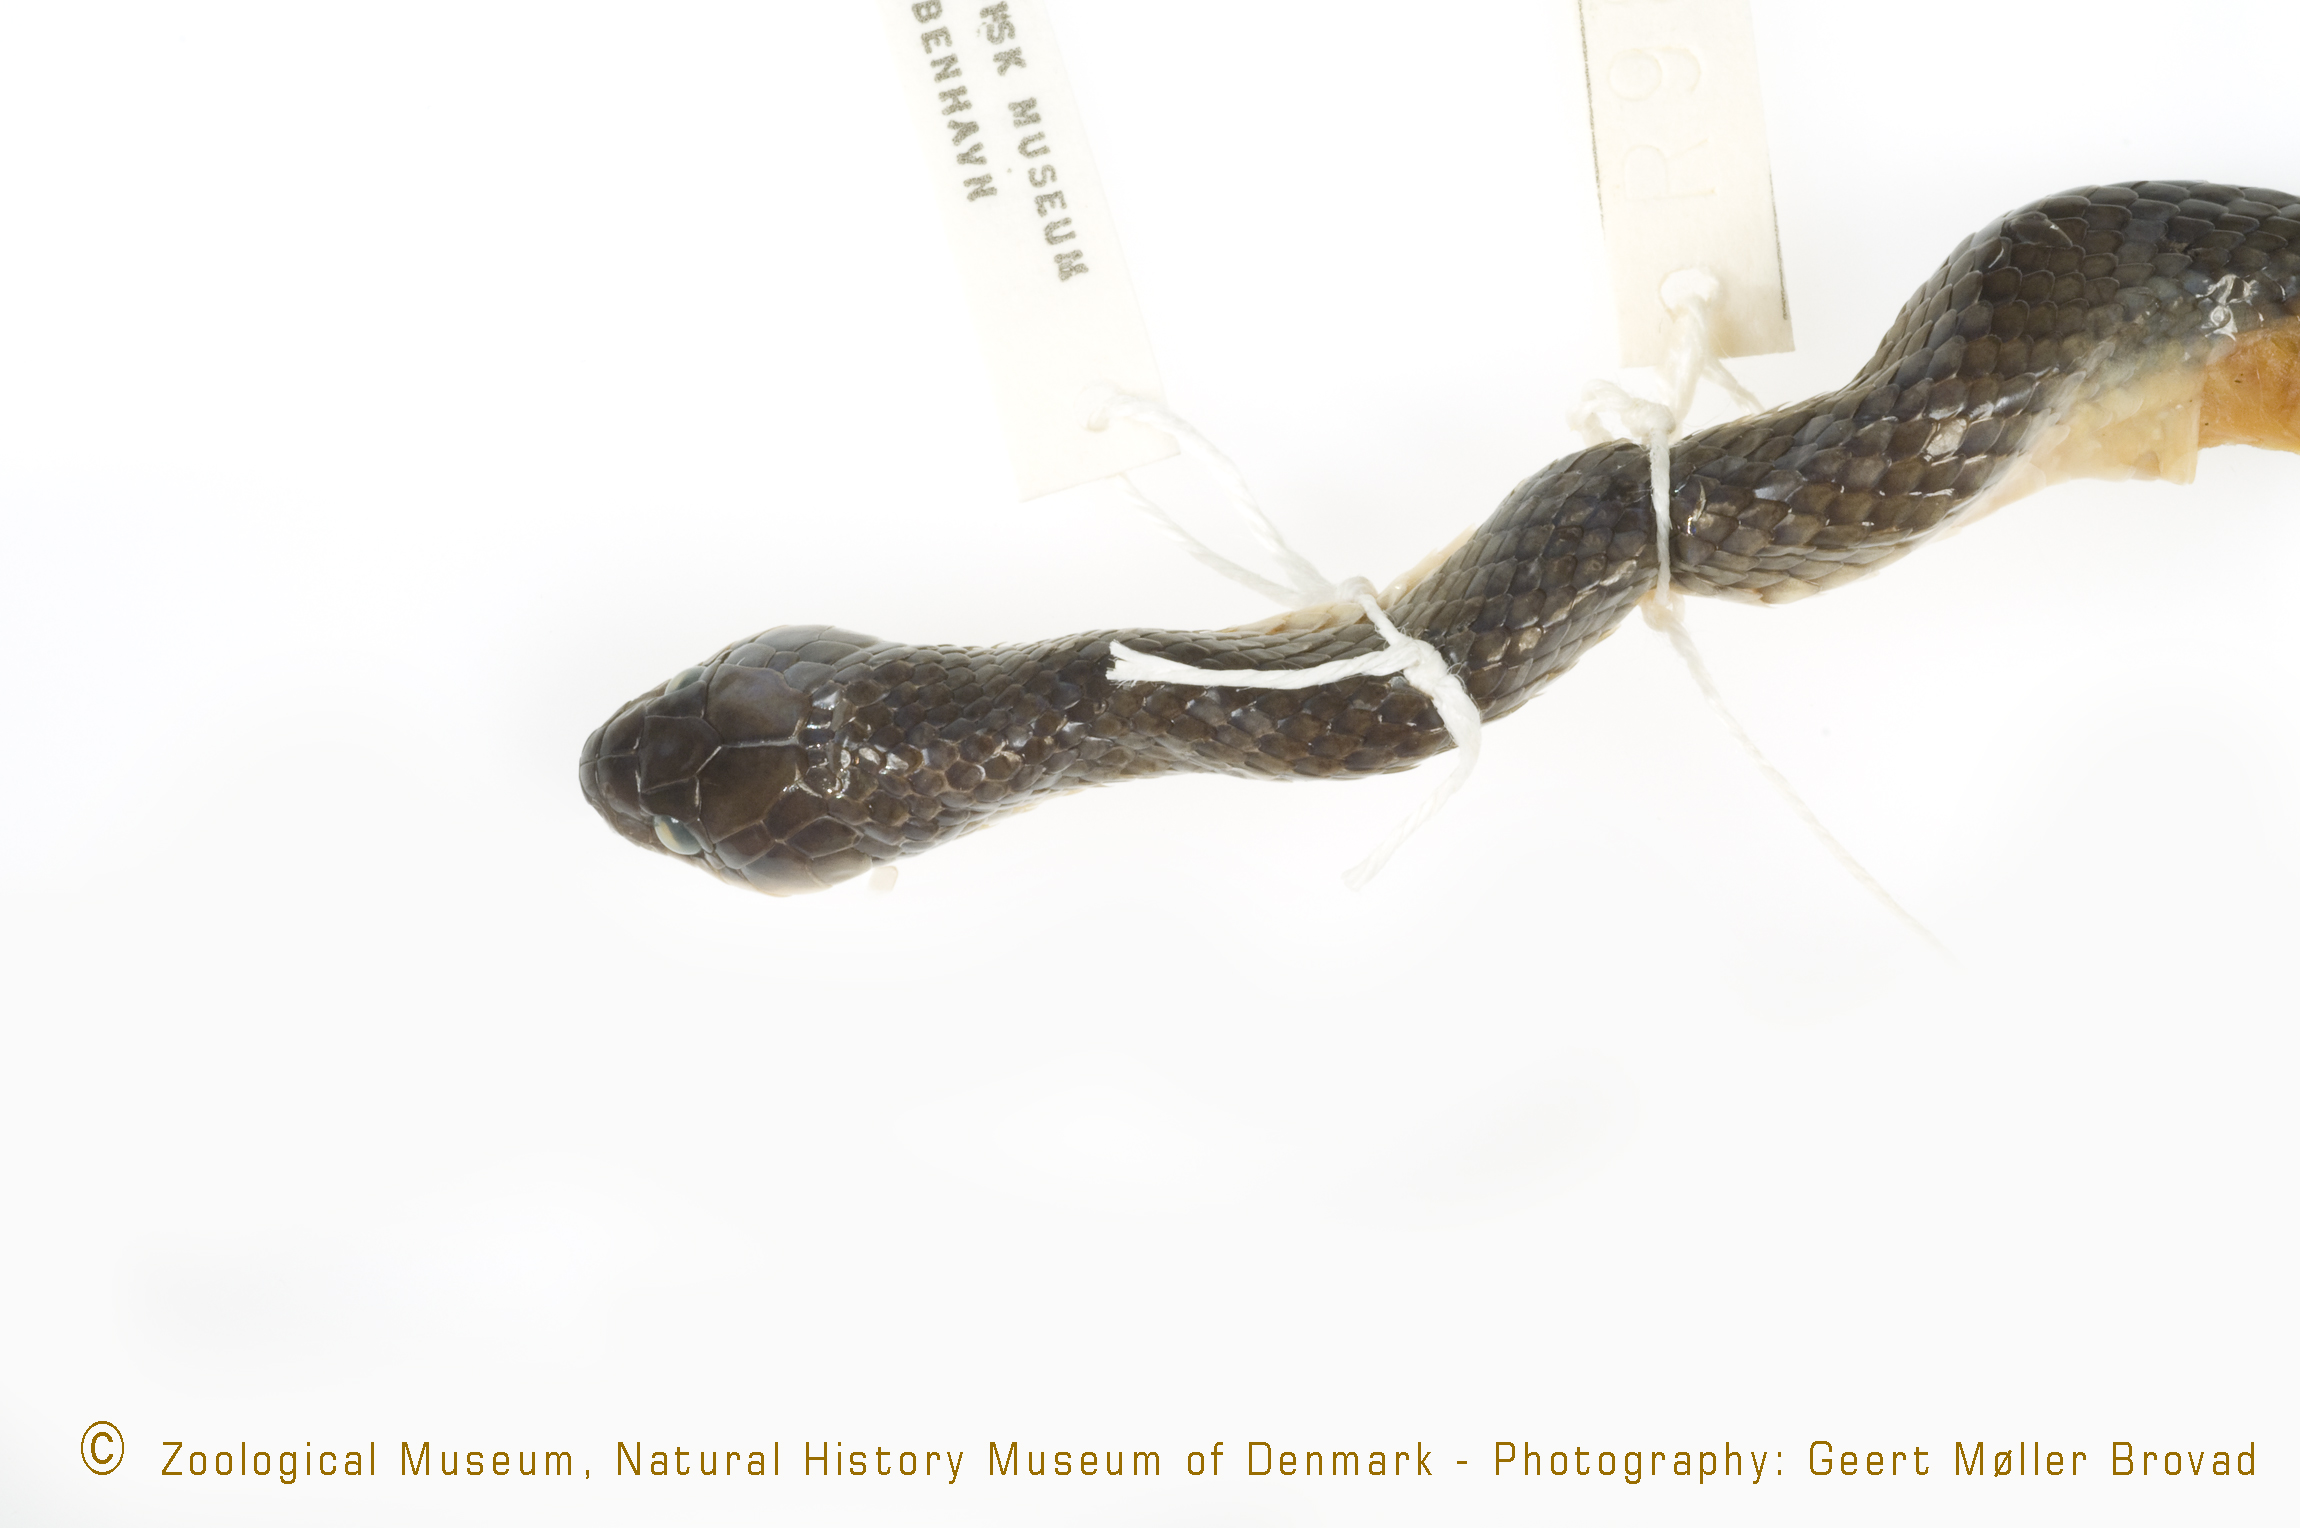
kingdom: Animalia
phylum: Chordata
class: Squamata
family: Colubridae
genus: Crotaphopeltis
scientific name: Crotaphopeltis degeni
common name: Degen’s herald snake
